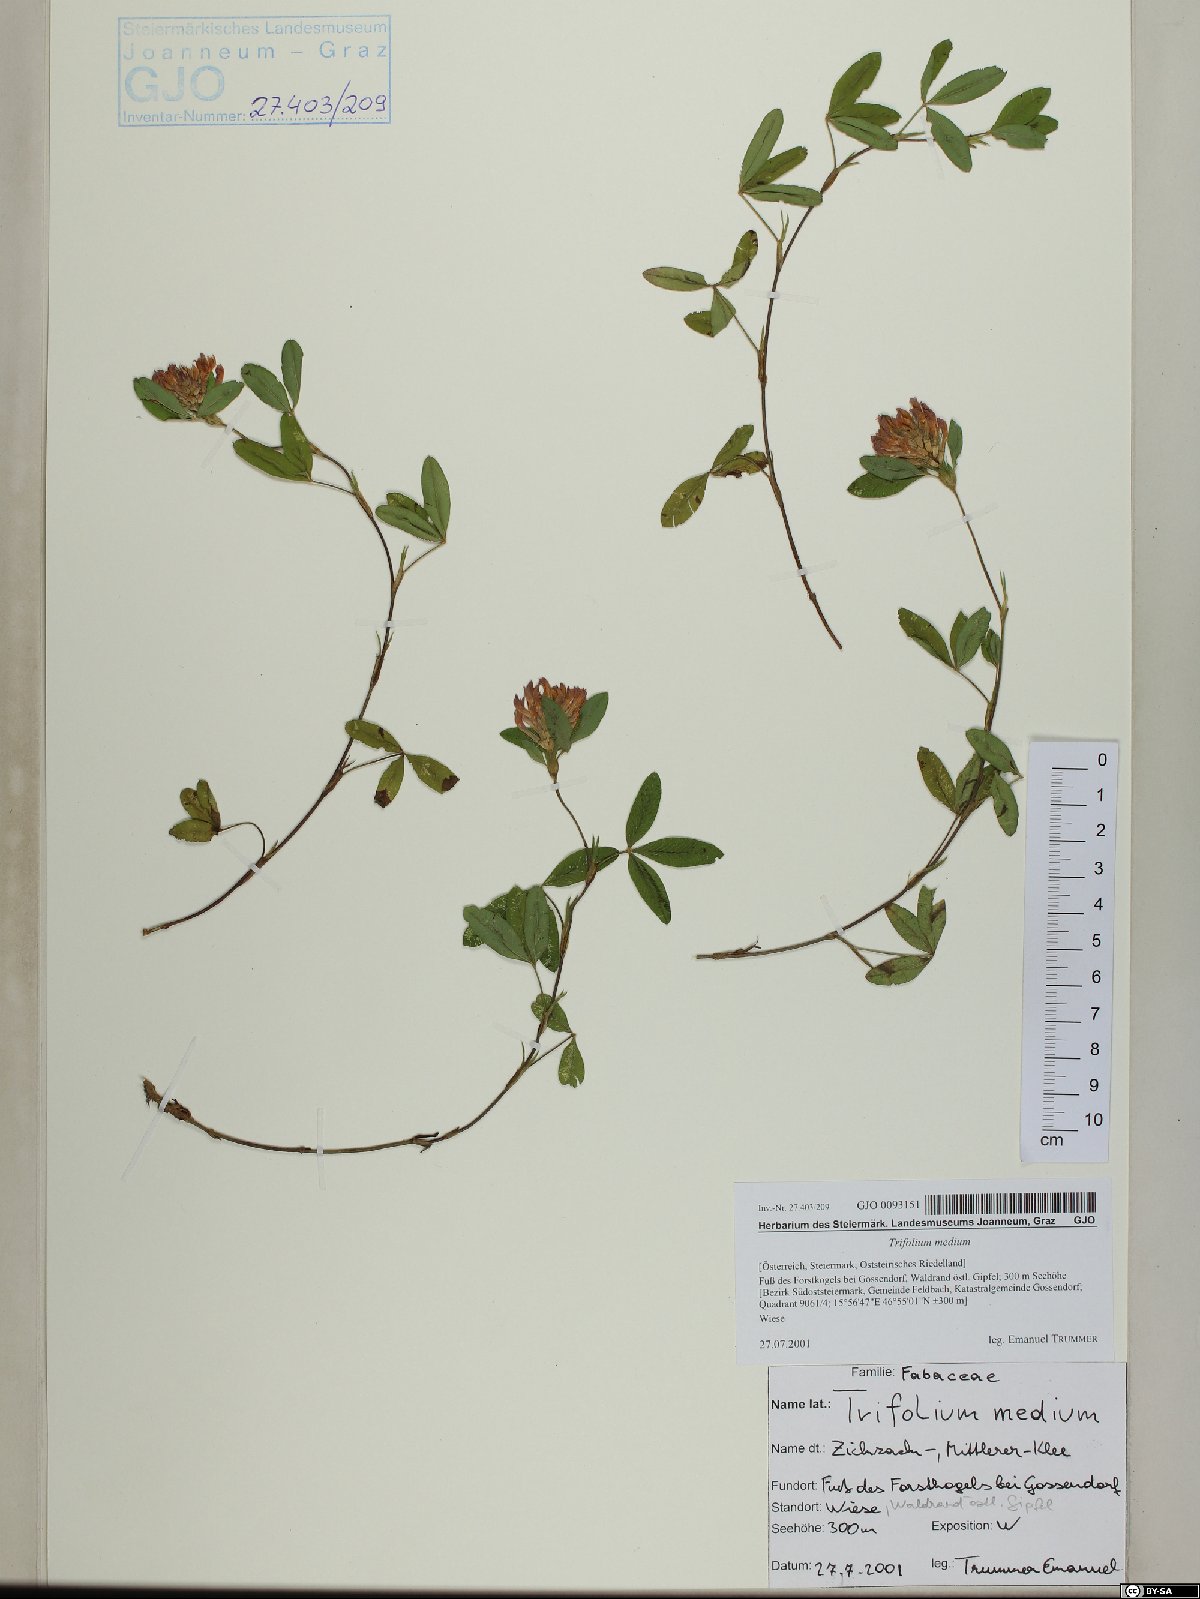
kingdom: Plantae
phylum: Tracheophyta
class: Magnoliopsida
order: Fabales
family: Fabaceae
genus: Trifolium
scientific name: Trifolium medium
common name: Zigzag clover
